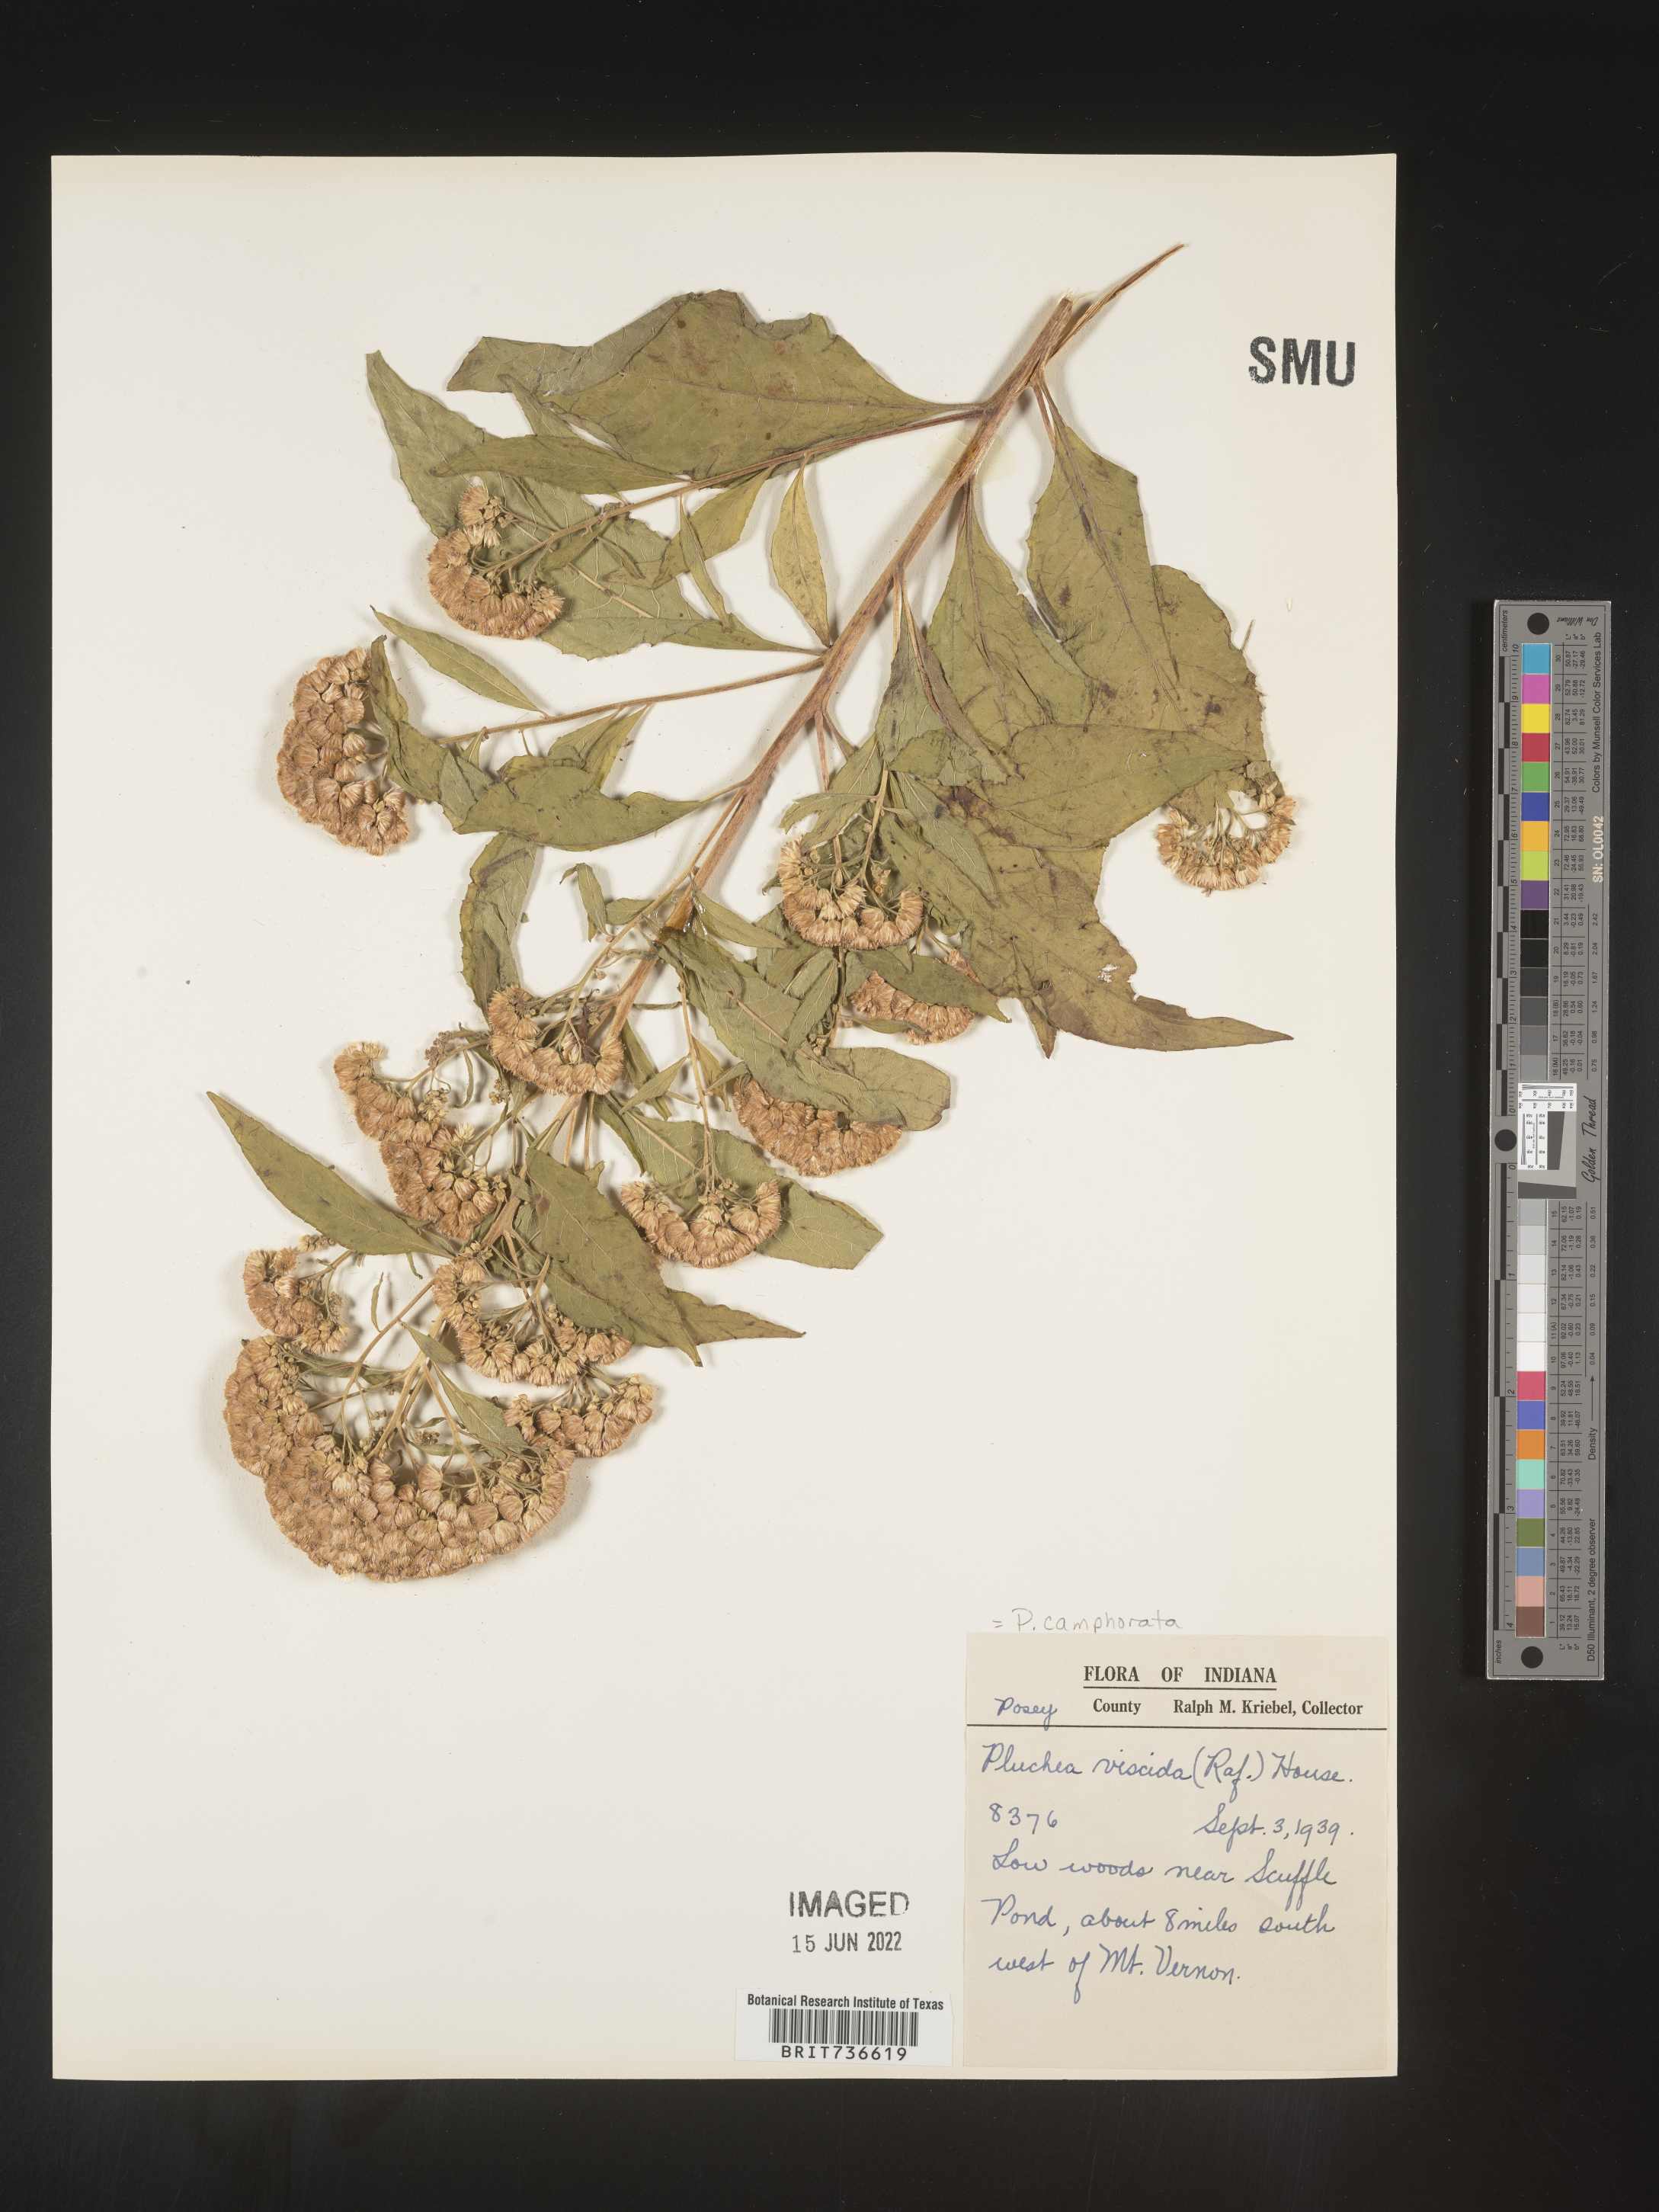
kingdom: Plantae
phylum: Tracheophyta
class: Magnoliopsida
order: Asterales
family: Asteraceae
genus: Pluchea
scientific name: Pluchea camphorata
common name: Camphor pluchea
